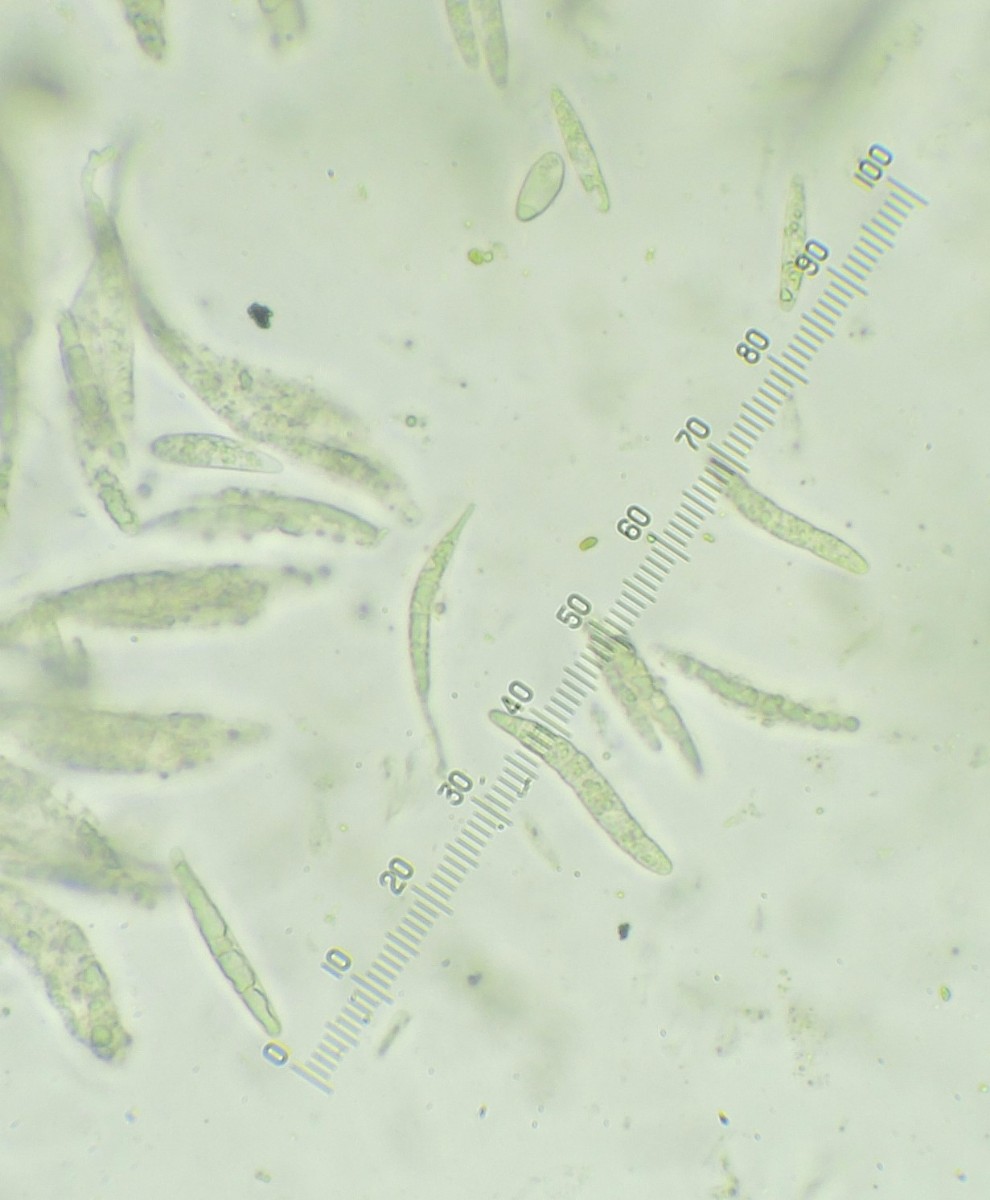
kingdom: Fungi
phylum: Ascomycota
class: Sordariomycetes
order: Hypocreales
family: Nectriaceae
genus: Calonectria
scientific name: Calonectria
